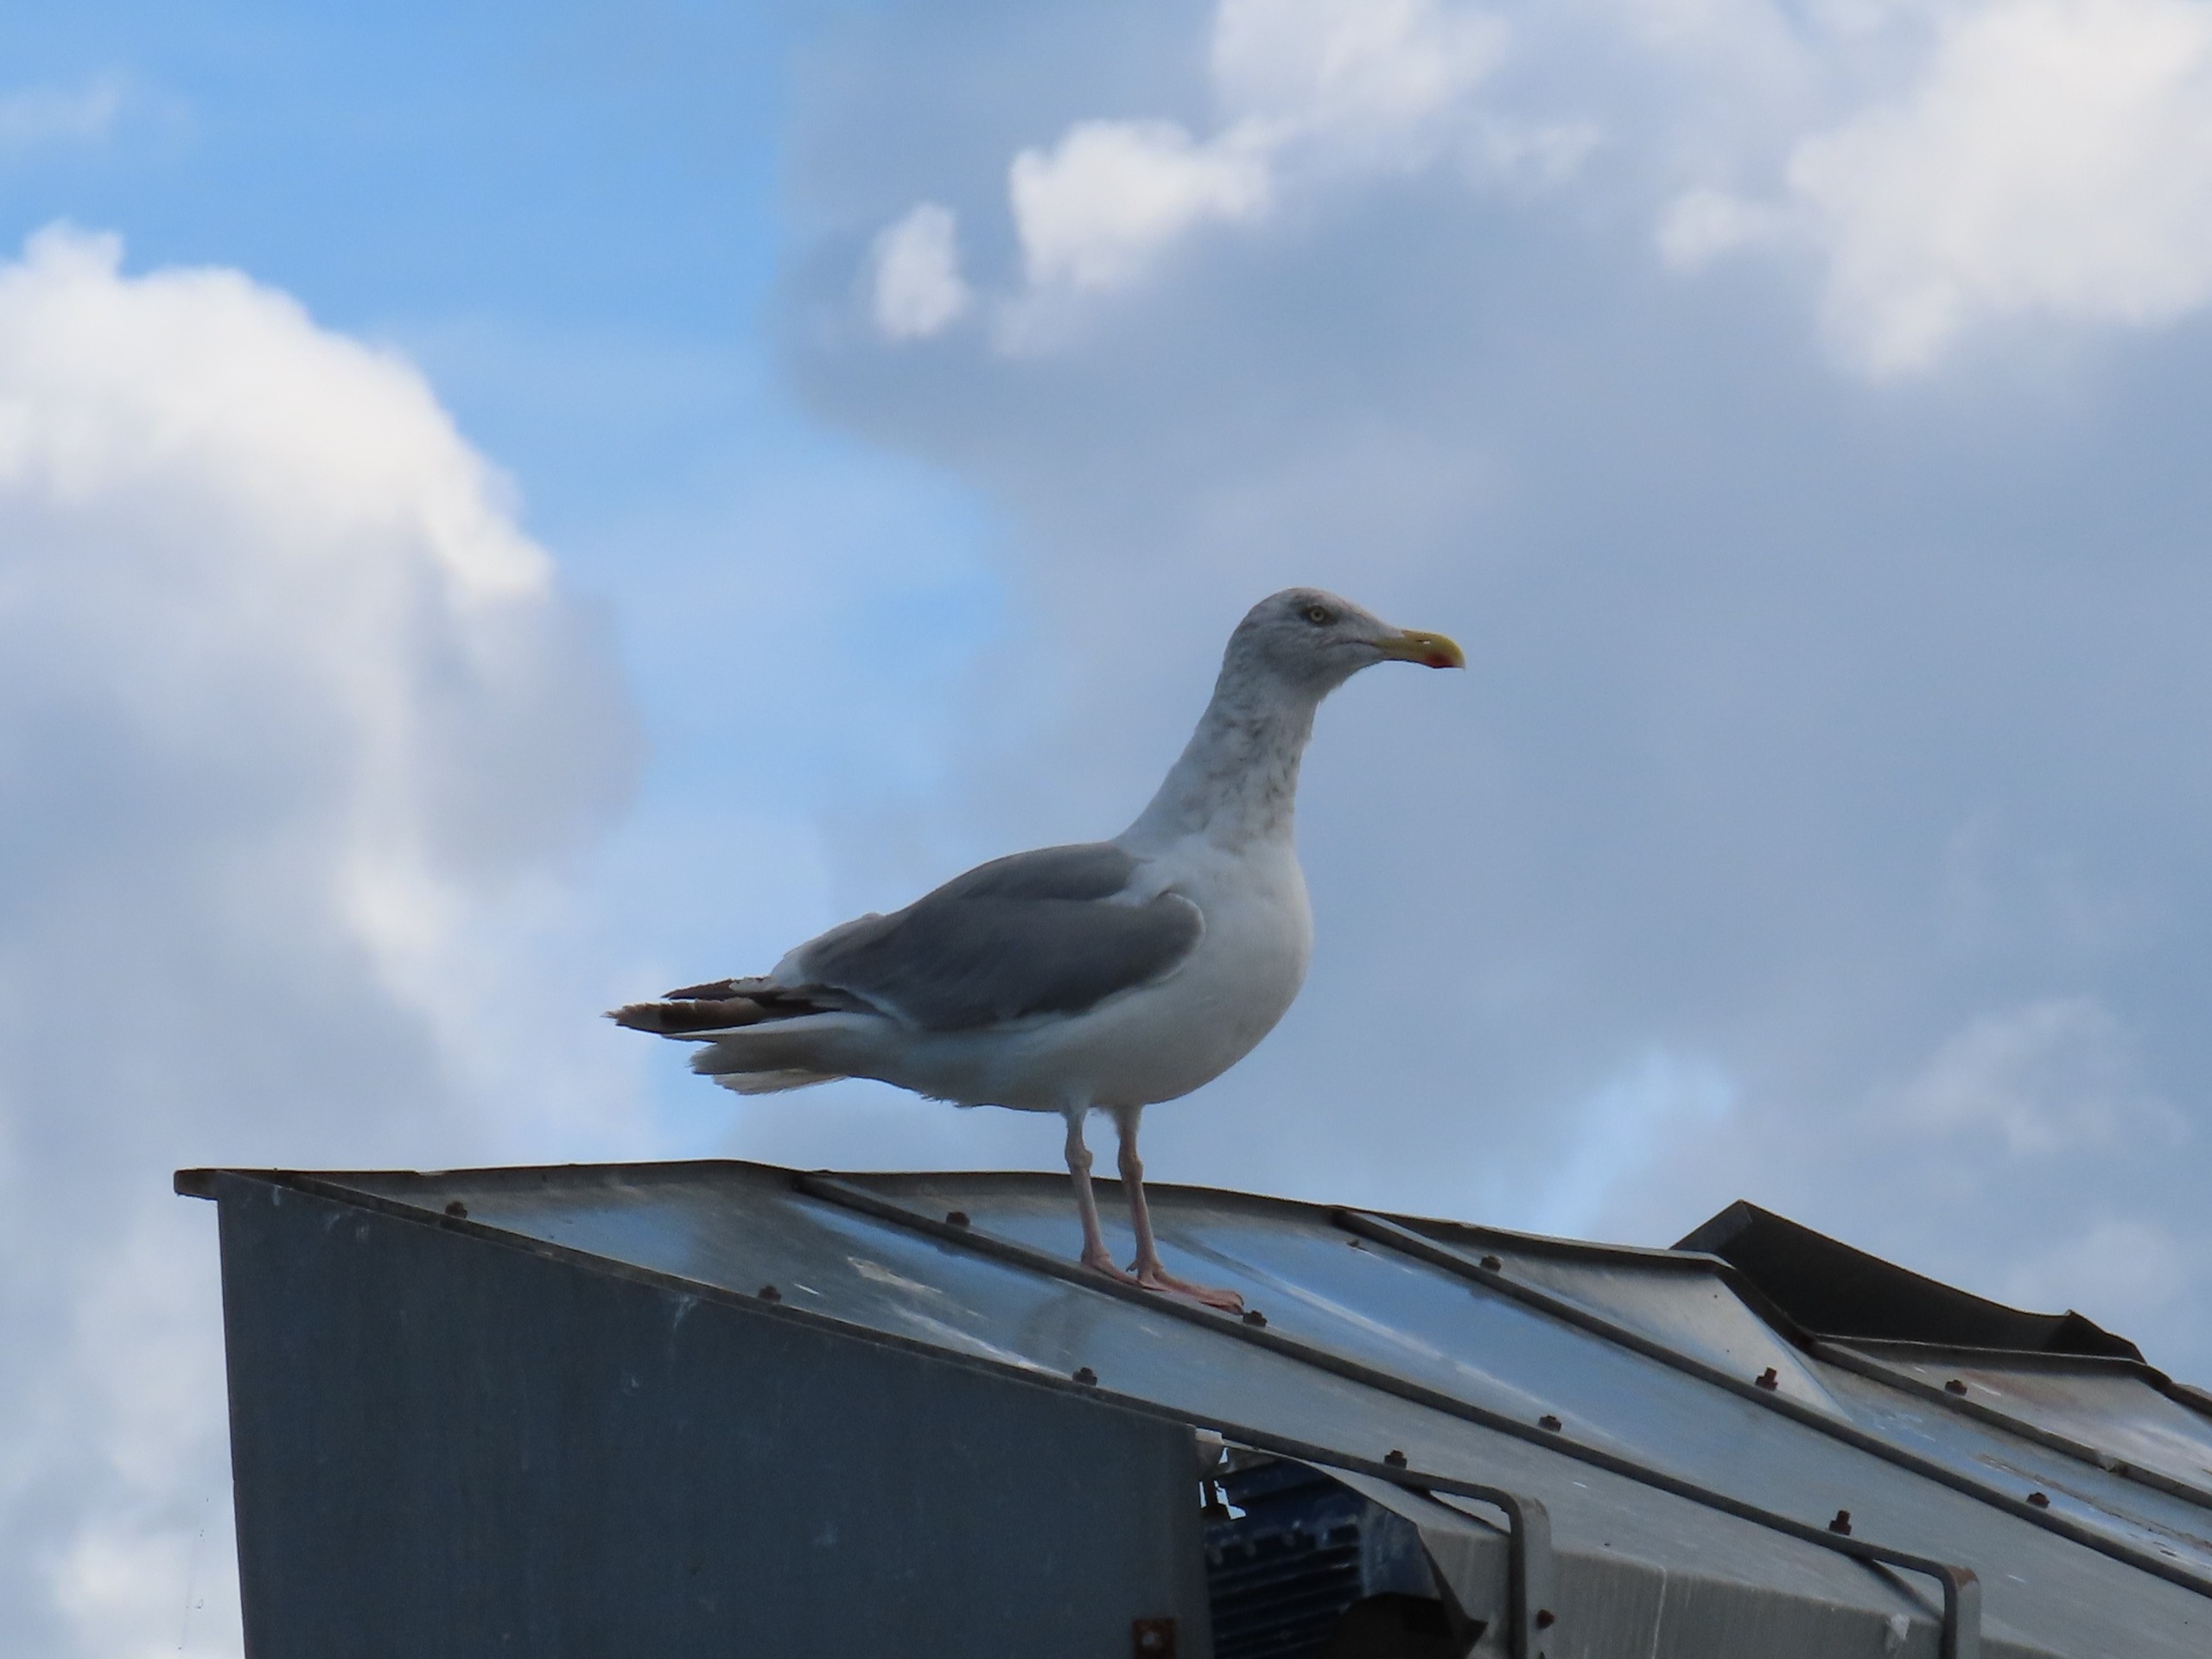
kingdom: Animalia
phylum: Chordata
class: Aves
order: Charadriiformes
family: Laridae
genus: Larus
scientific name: Larus argentatus
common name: Sølvmåge
